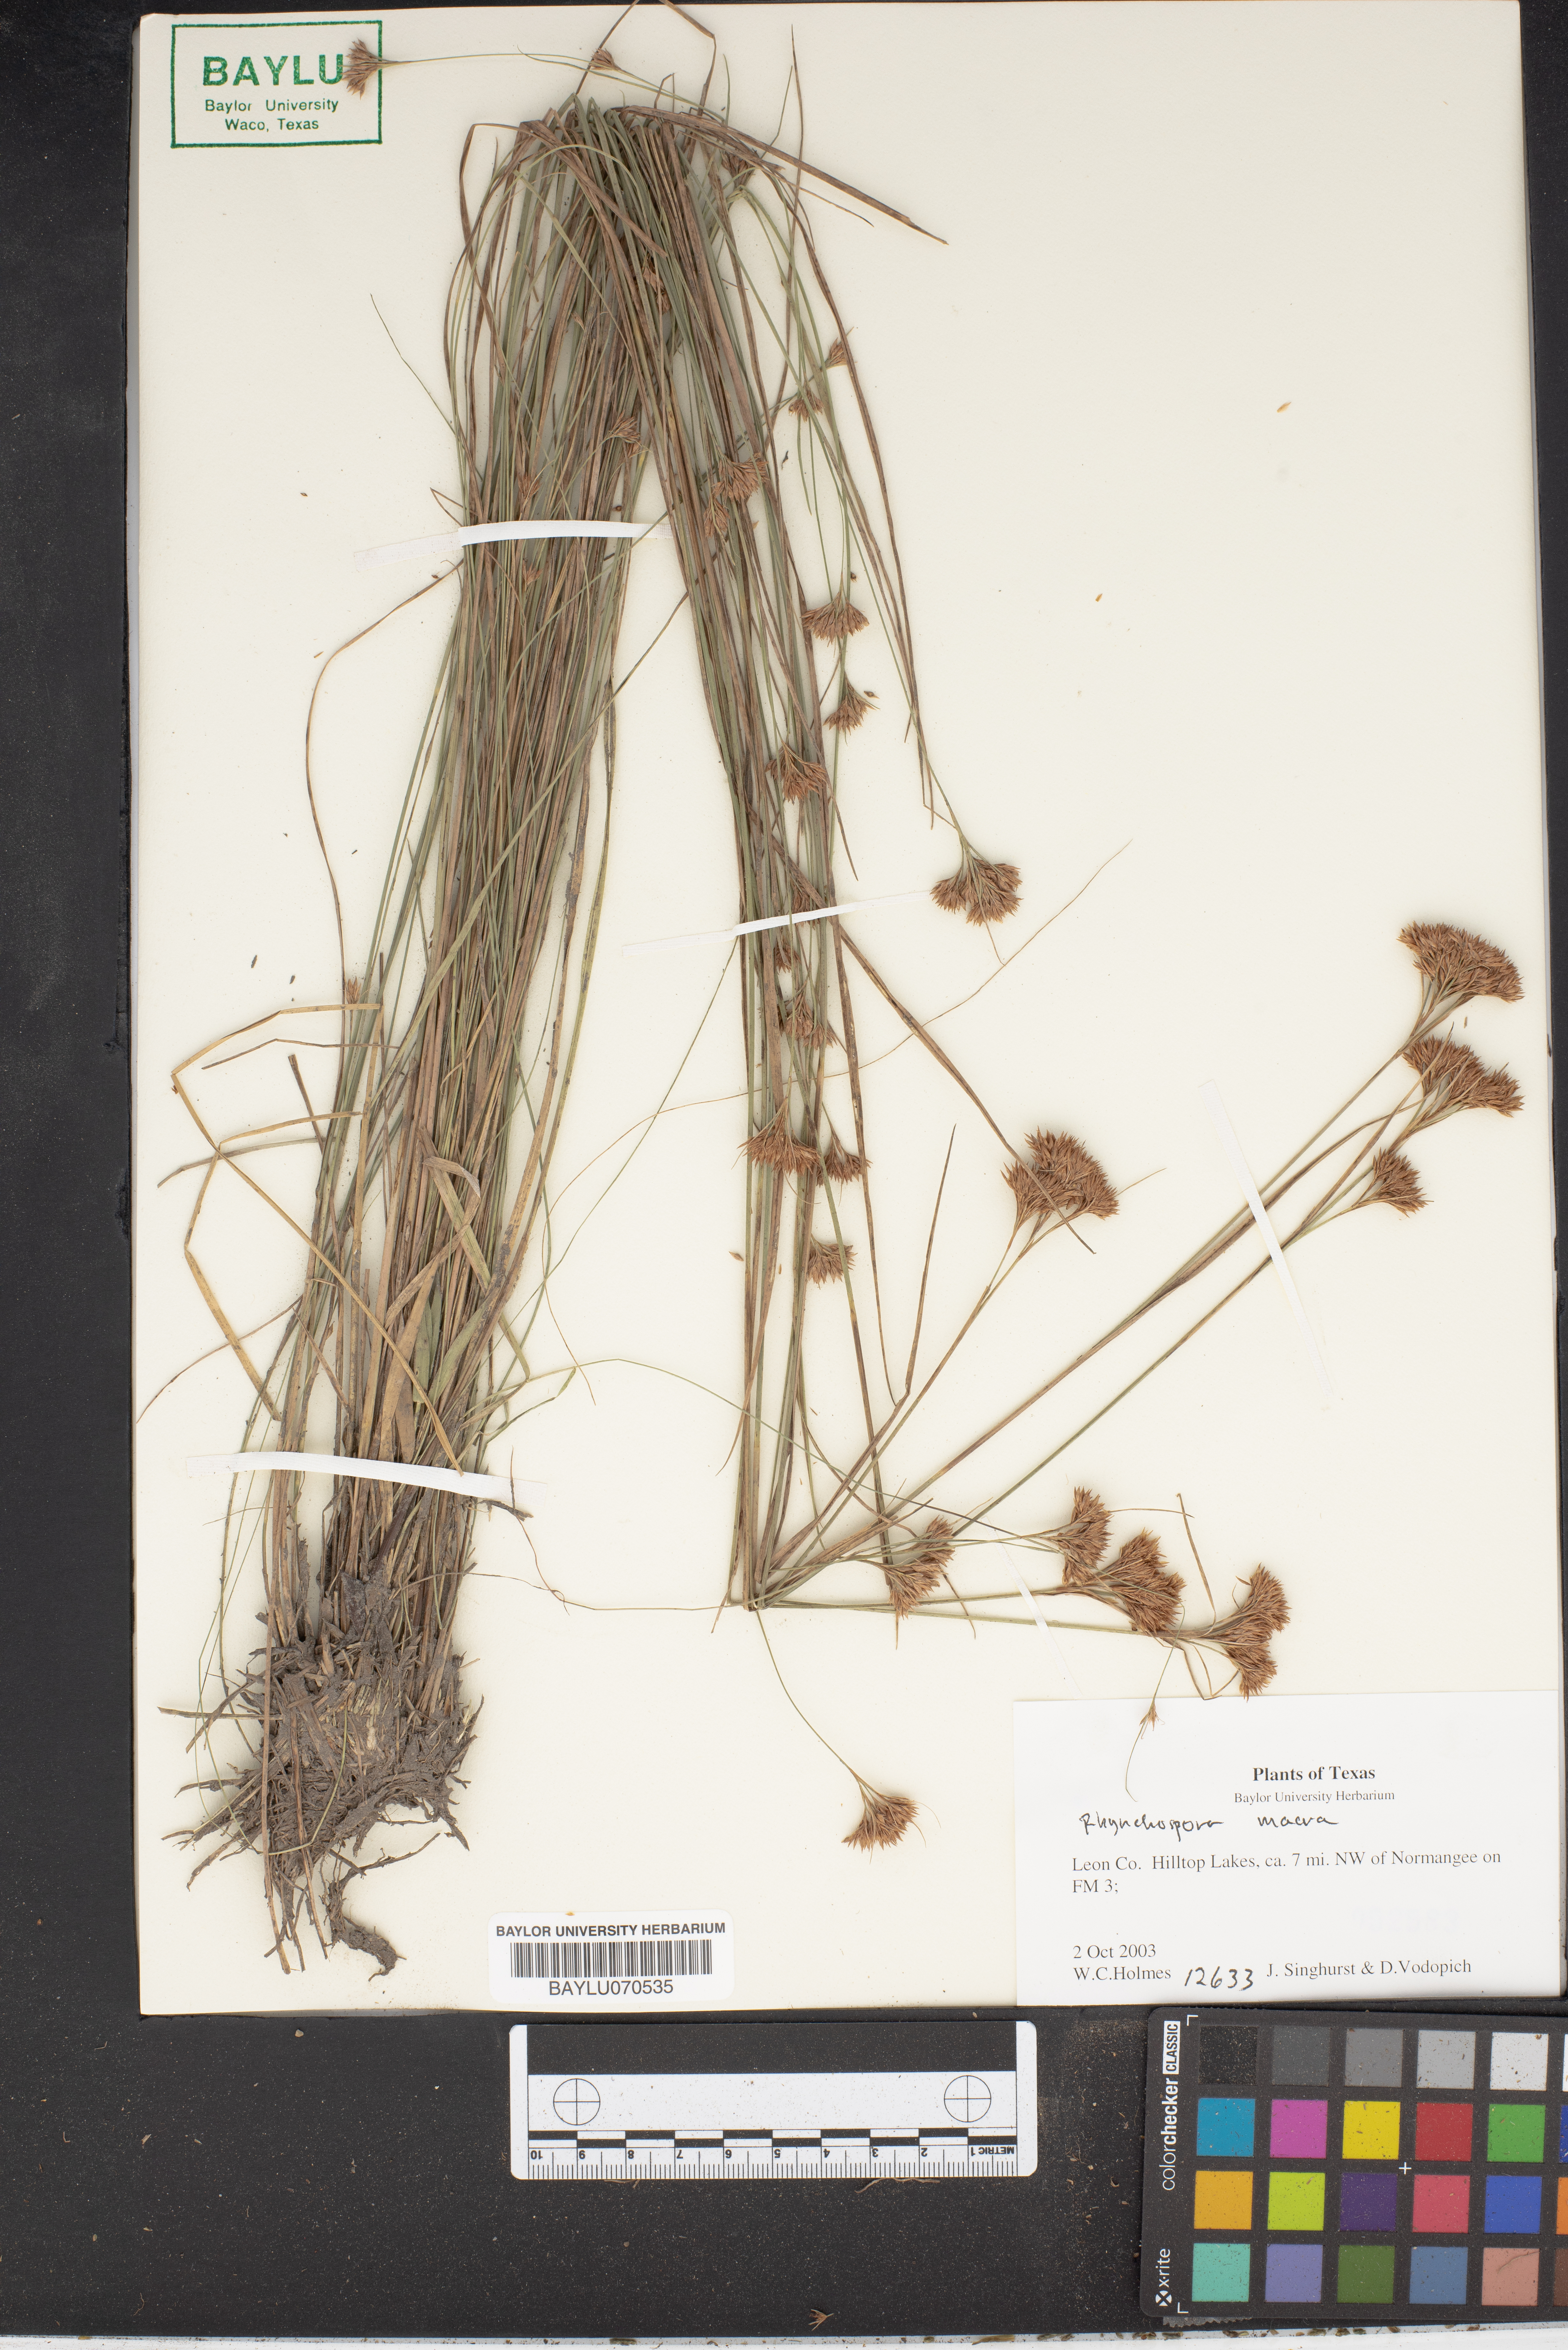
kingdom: Plantae
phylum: Tracheophyta
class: Liliopsida
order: Poales
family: Cyperaceae
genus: Rhynchospora
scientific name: Rhynchospora macra
